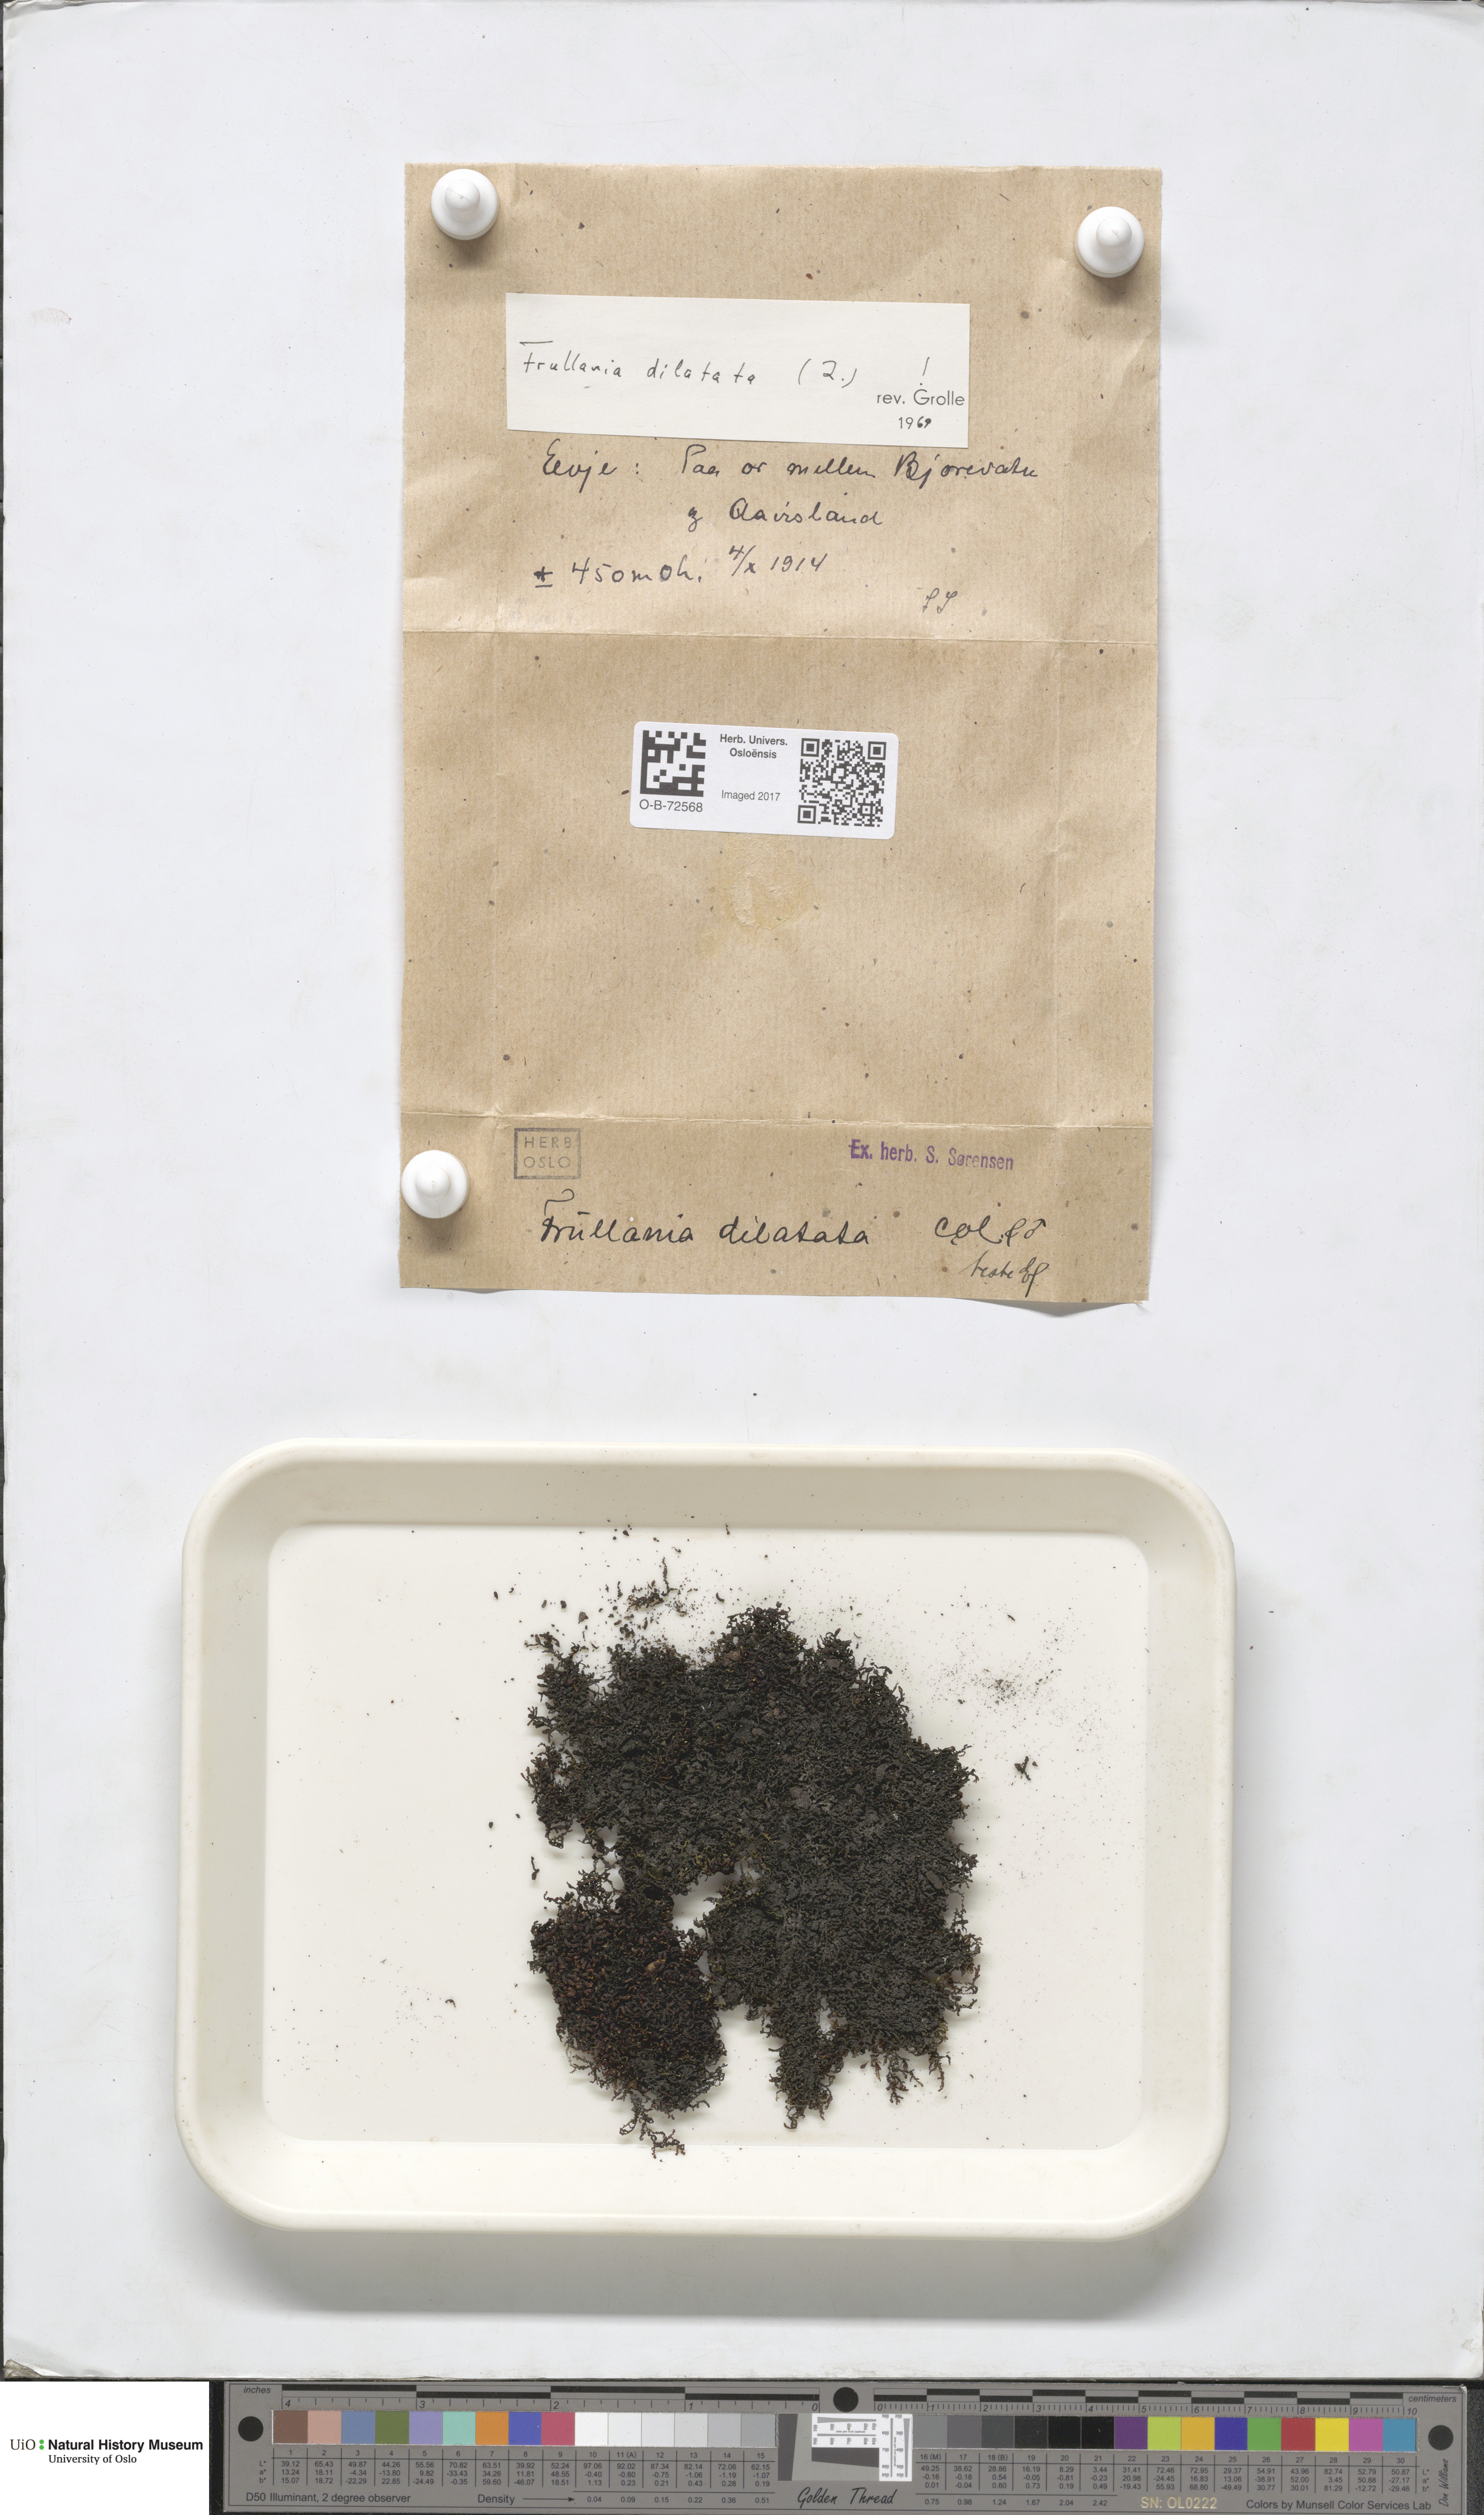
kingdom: Plantae
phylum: Marchantiophyta
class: Jungermanniopsida
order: Porellales
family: Frullaniaceae
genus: Frullania
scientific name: Frullania dilatata
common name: Dilated scalewort
